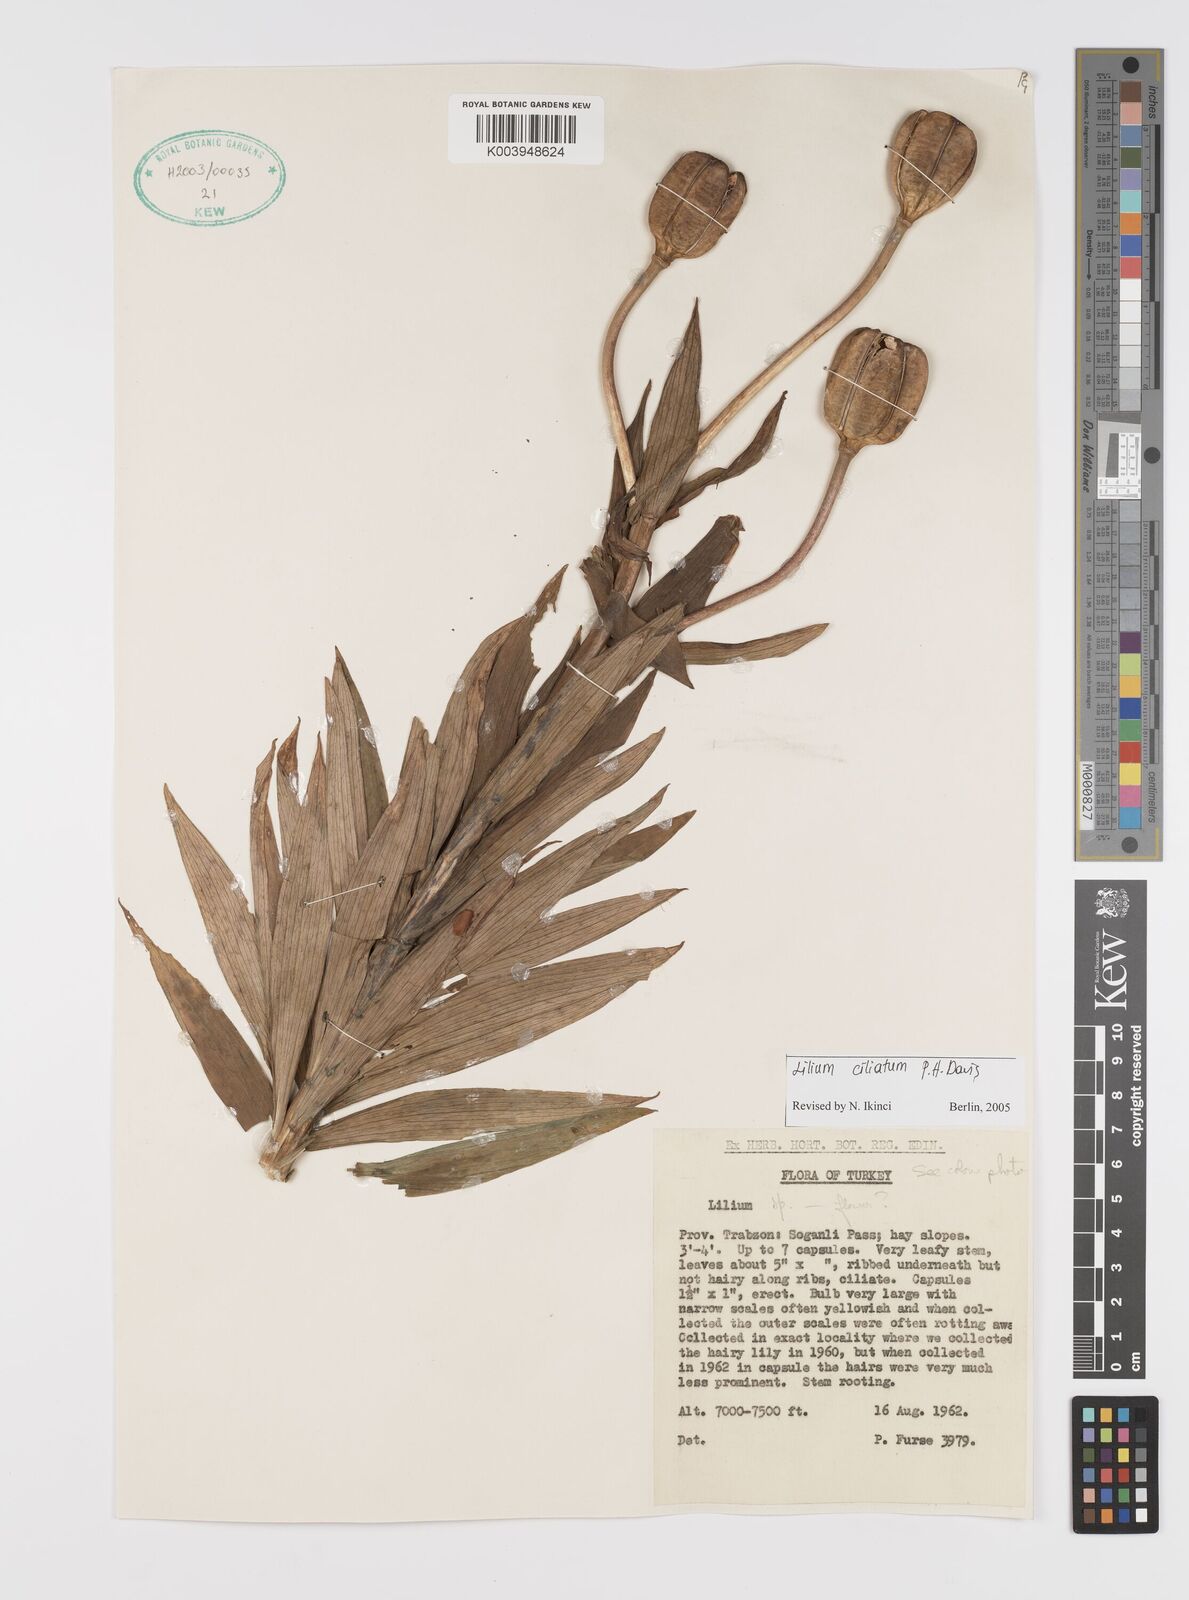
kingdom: Plantae
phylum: Tracheophyta
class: Liliopsida
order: Liliales
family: Liliaceae
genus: Lilium
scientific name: Lilium ciliatum
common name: Ciliate lily
